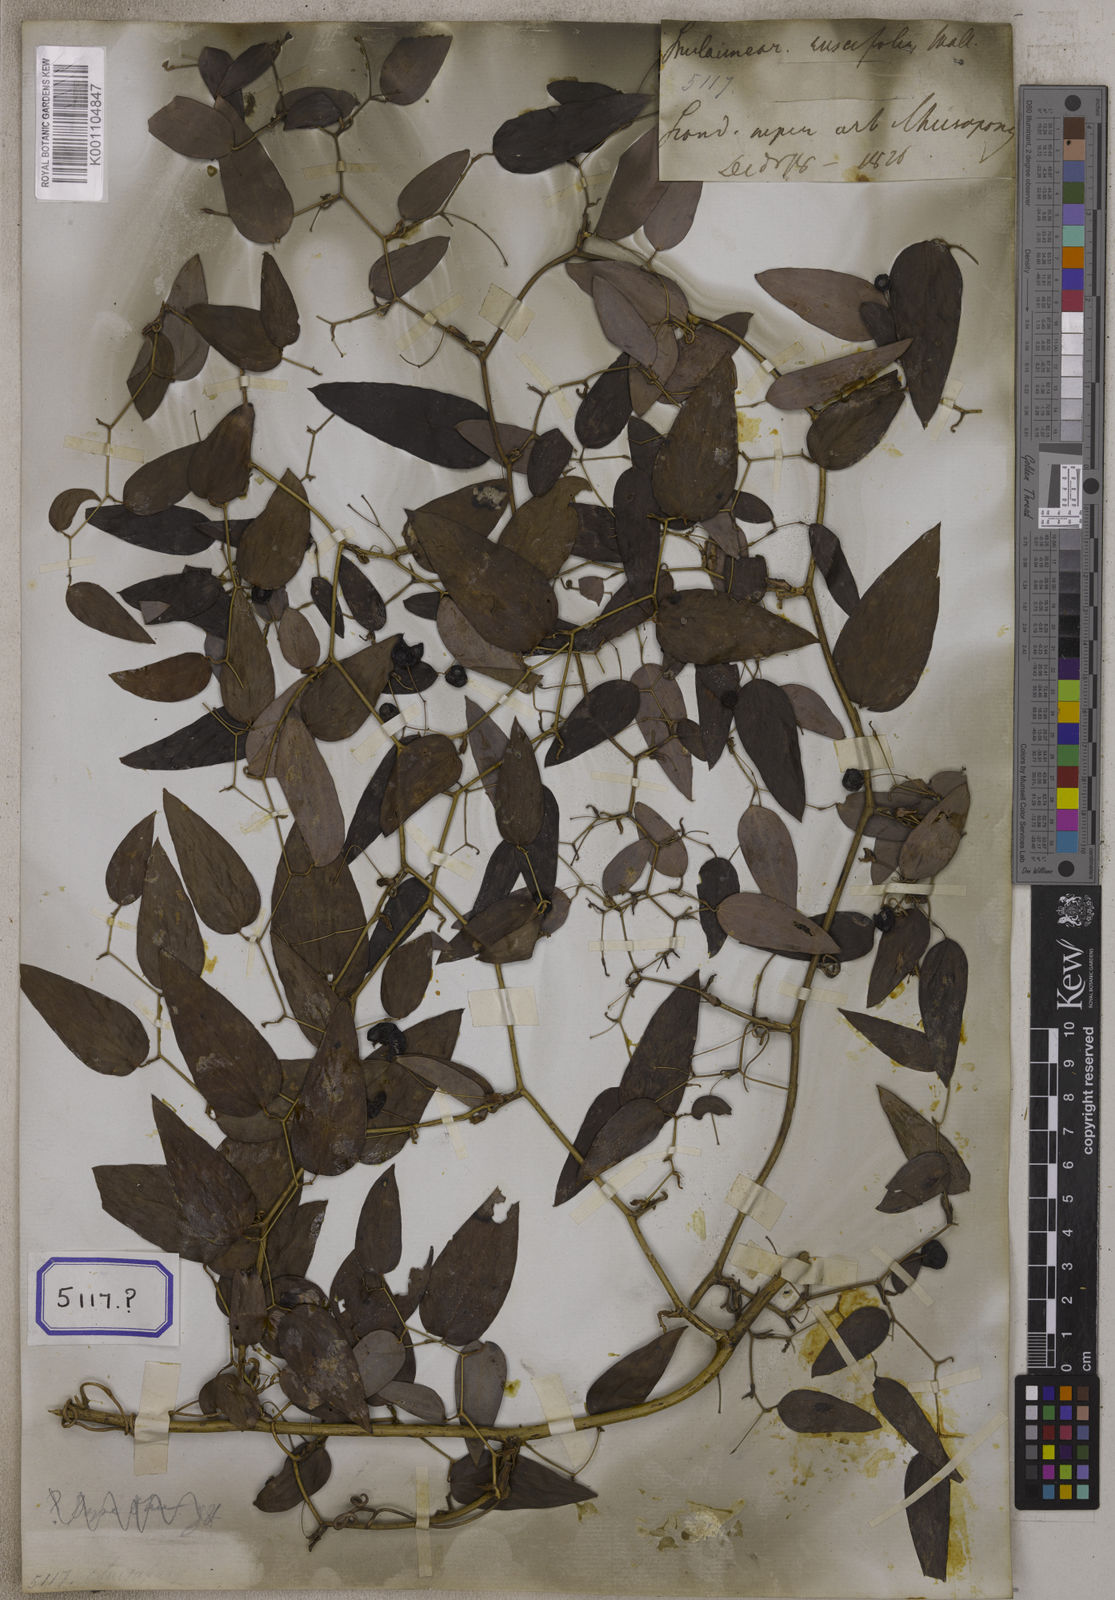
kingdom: Plantae
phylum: Tracheophyta
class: Liliopsida
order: Liliales
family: Smilacaceae
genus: Smilax
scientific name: Smilax
